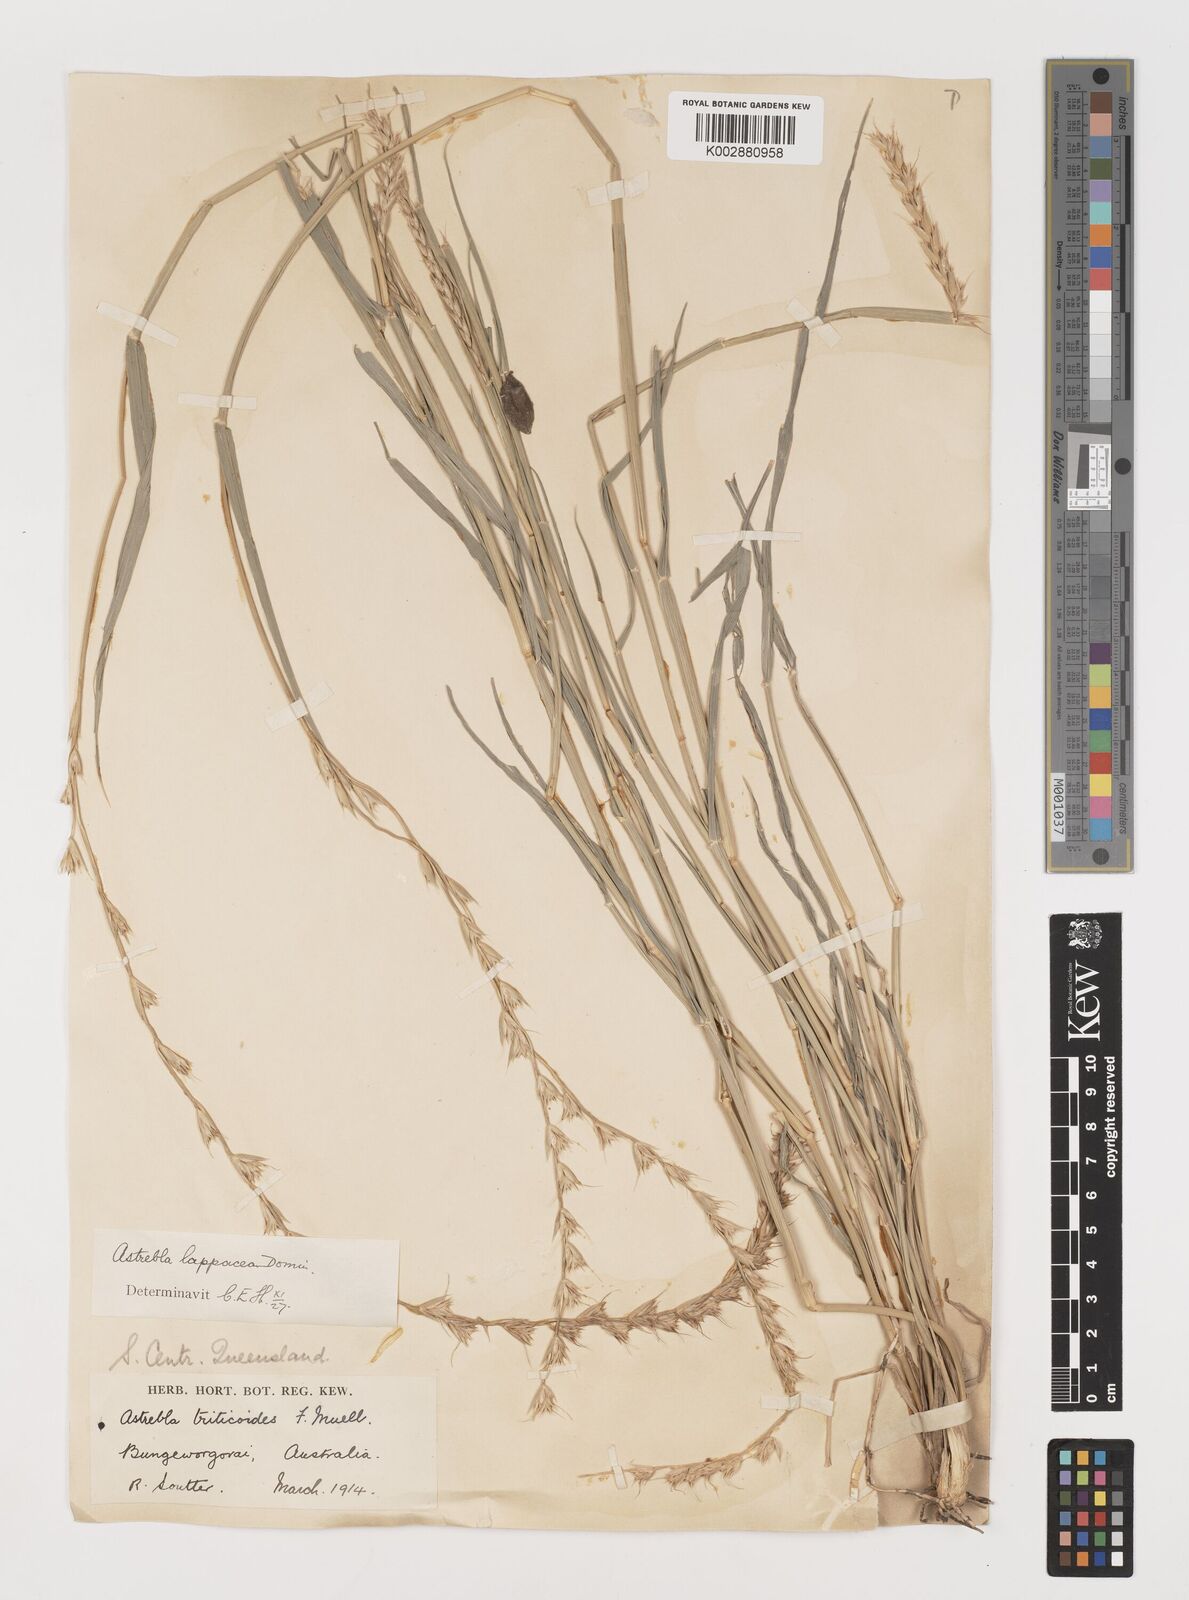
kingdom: Plantae
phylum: Tracheophyta
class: Liliopsida
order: Poales
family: Poaceae
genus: Astrebla
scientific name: Astrebla lappacea
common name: Curly mitchell grass
